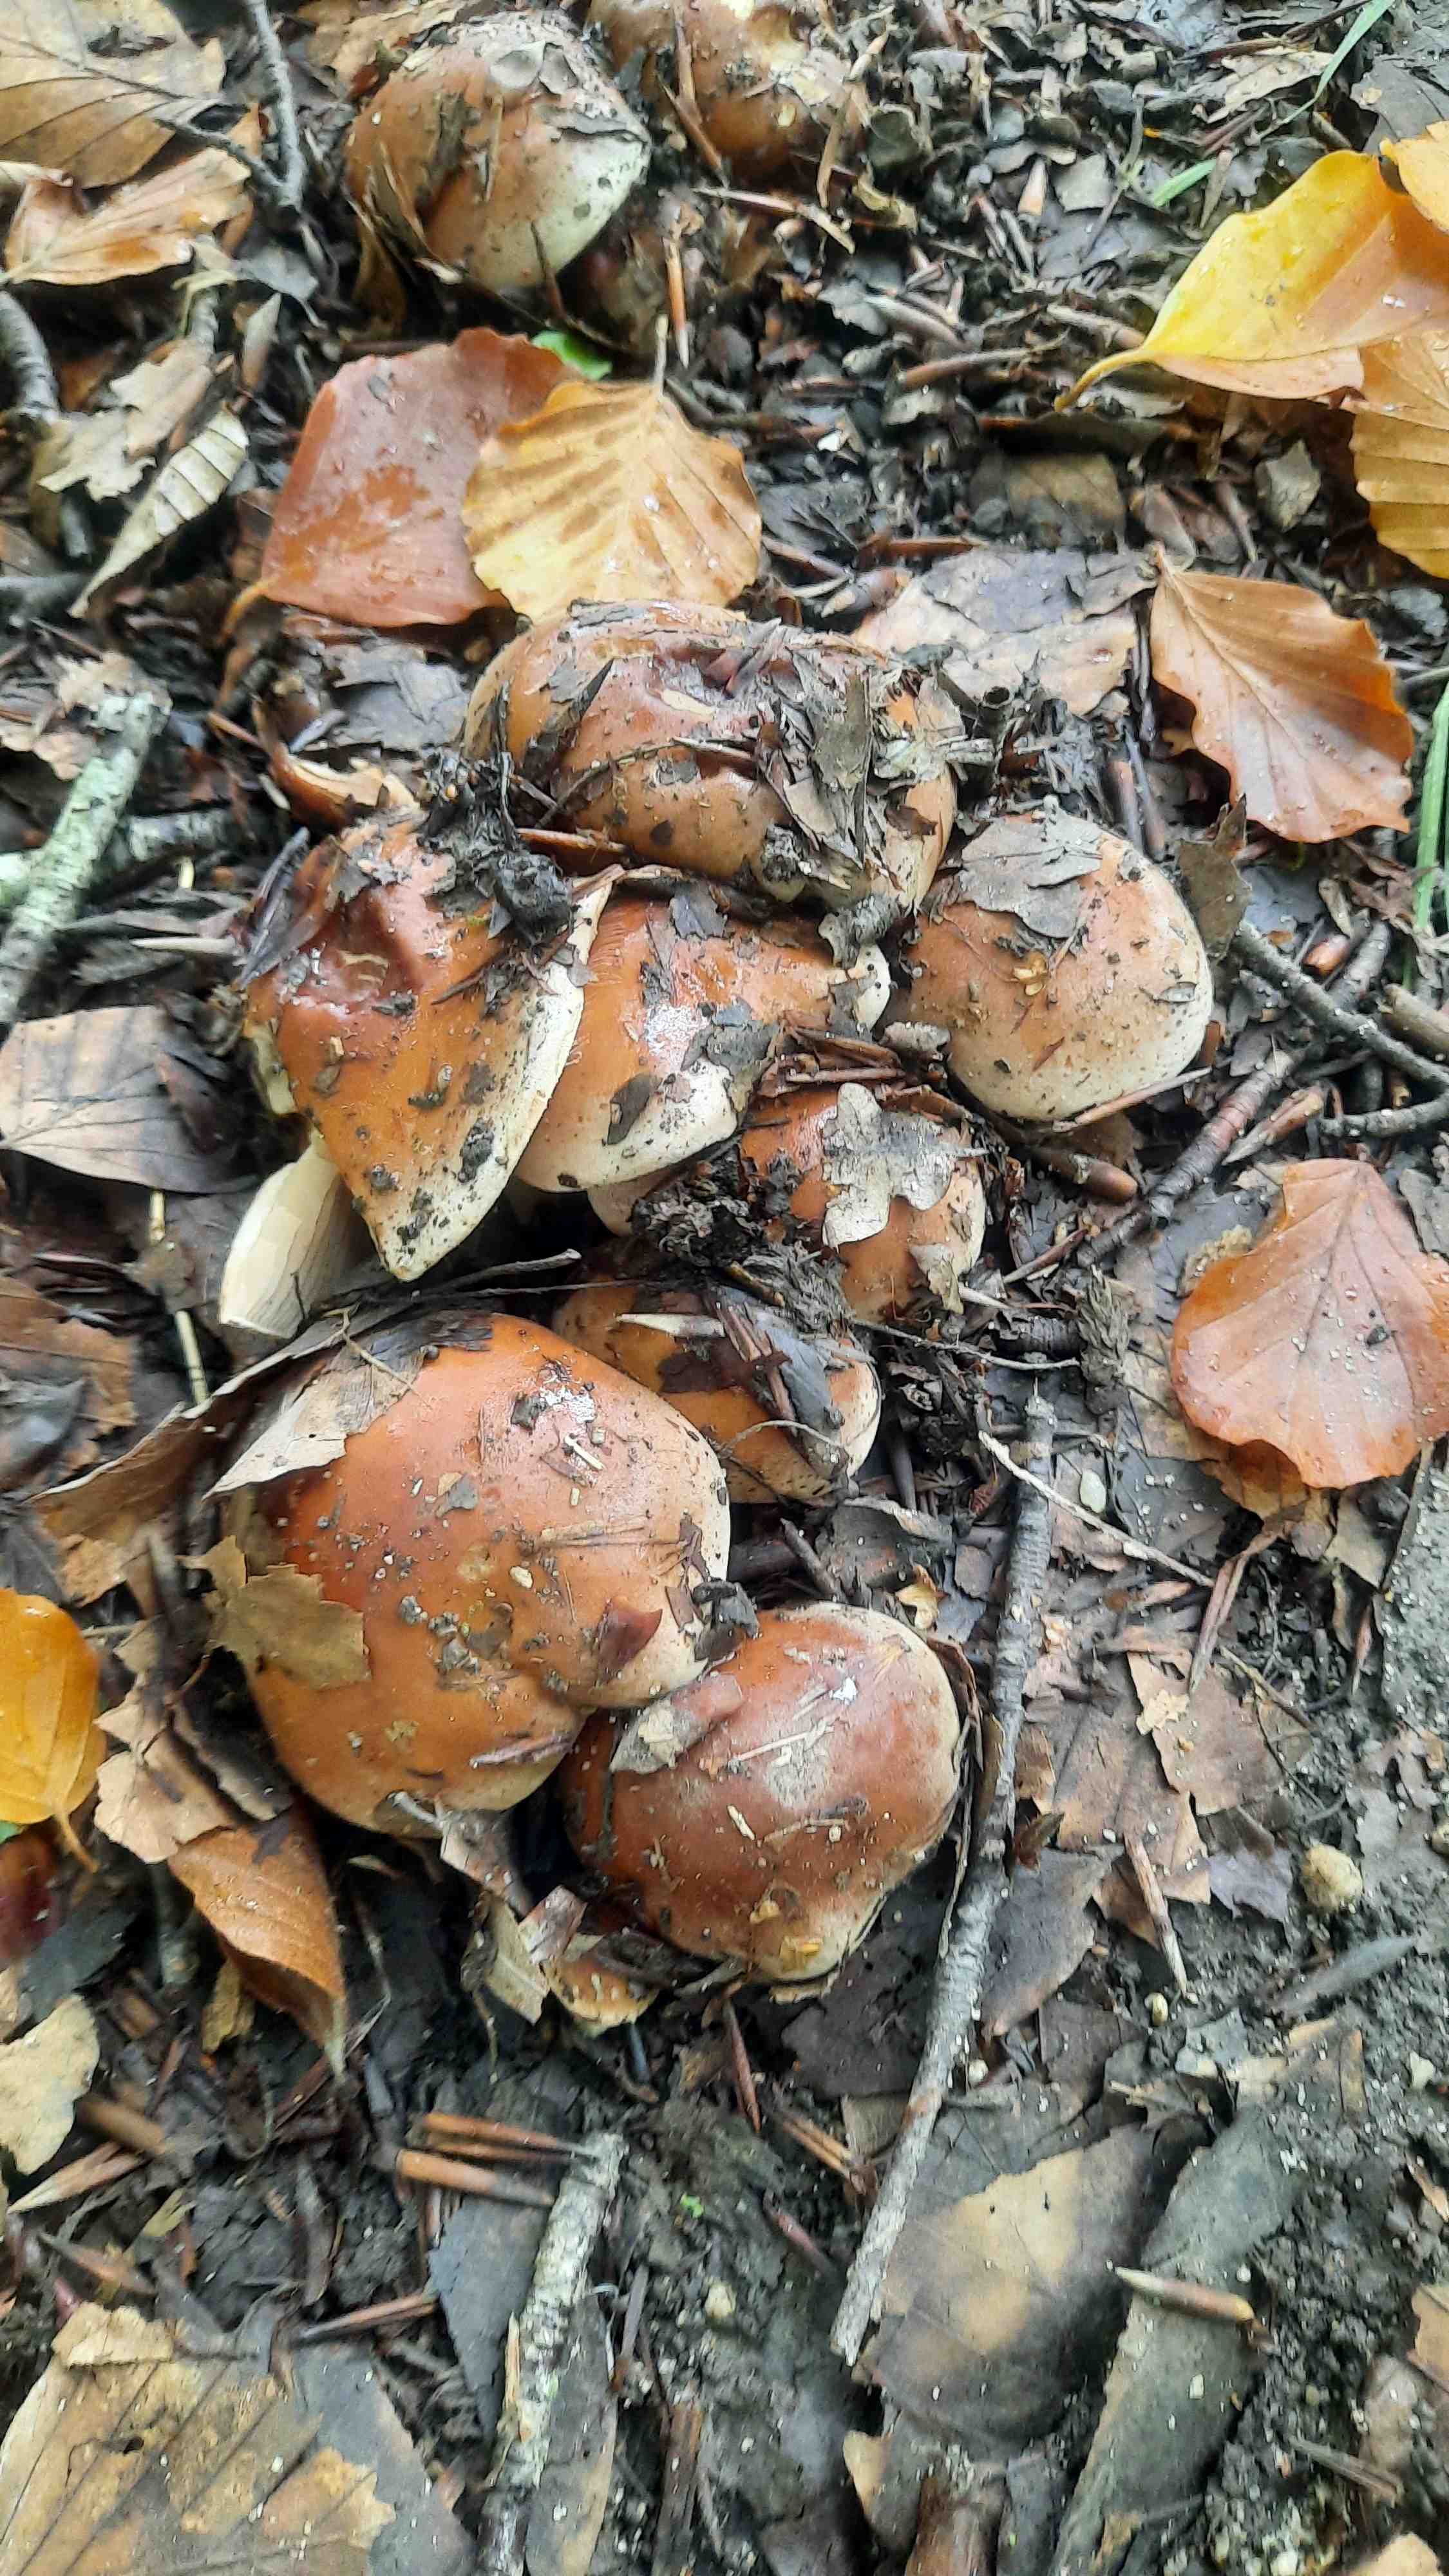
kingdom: Fungi
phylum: Basidiomycota
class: Agaricomycetes
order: Agaricales
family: Hymenogastraceae
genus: Hebeloma
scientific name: Hebeloma sinapizans
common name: ræddike-tåreblad
